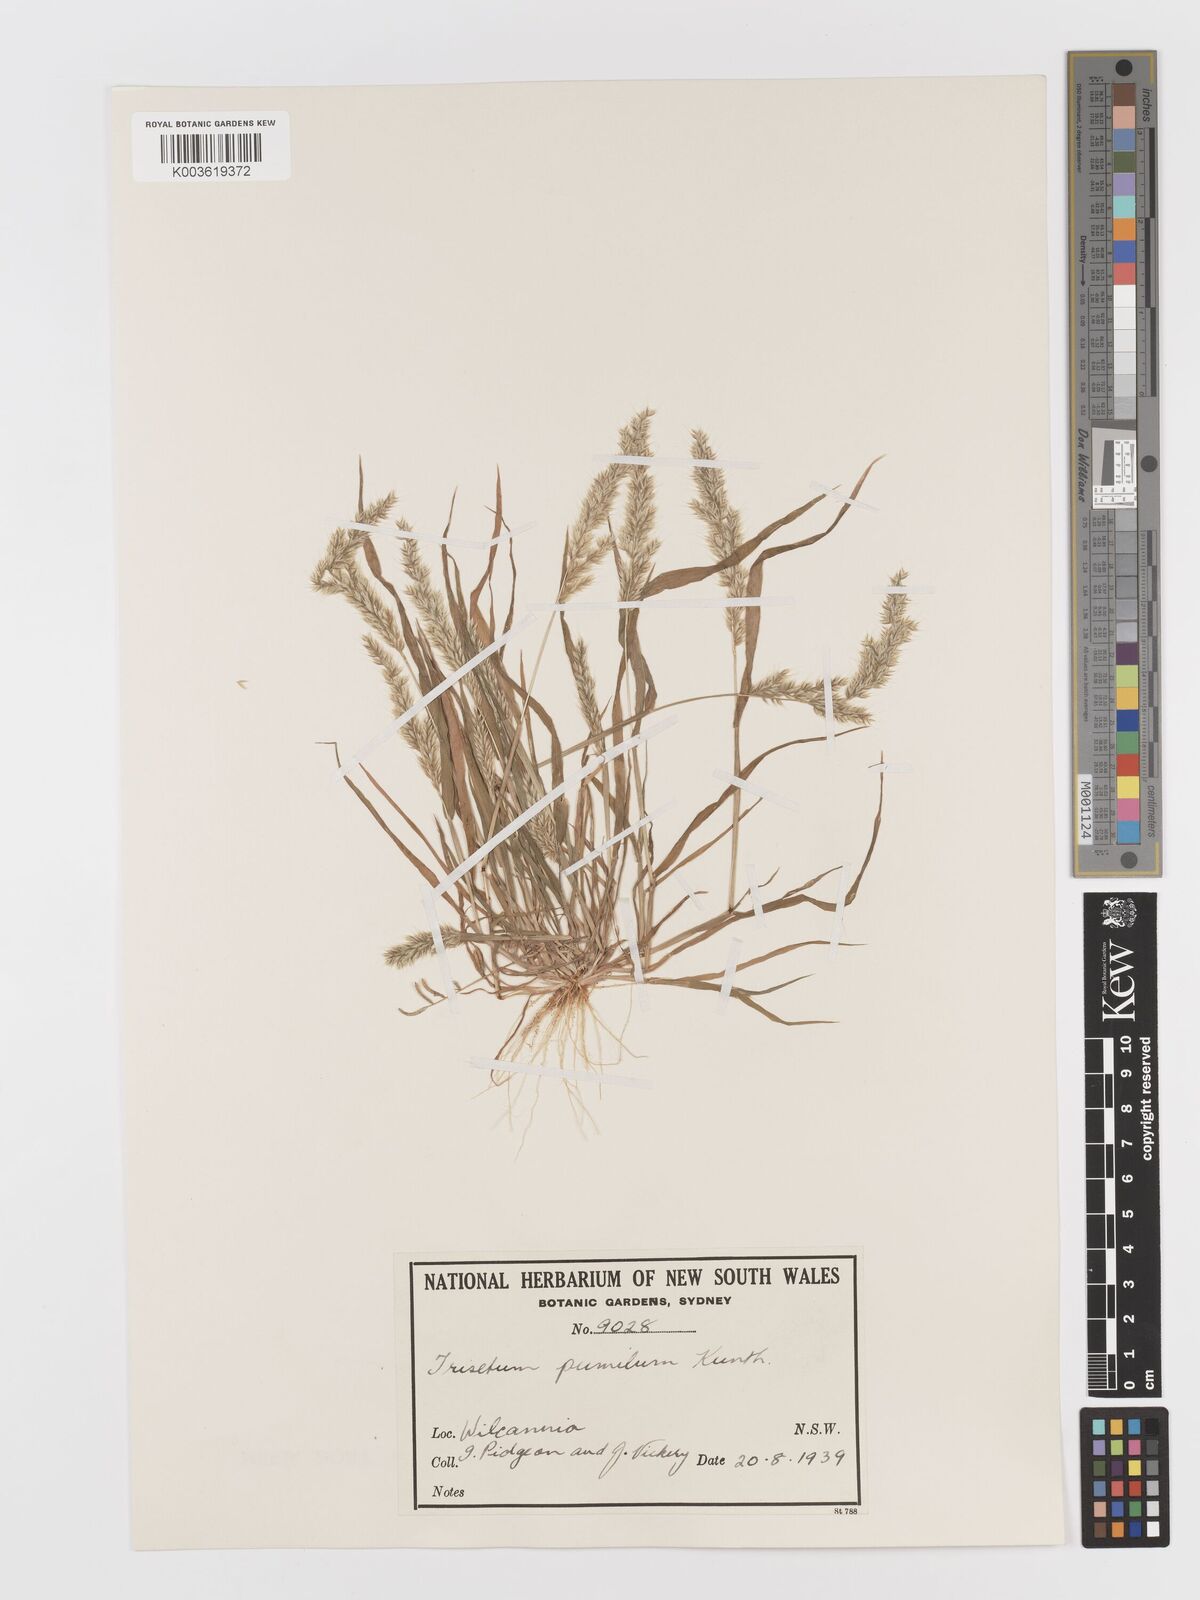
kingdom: Plantae
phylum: Tracheophyta
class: Liliopsida
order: Poales
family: Poaceae
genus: Rostraria
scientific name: Rostraria pumila
